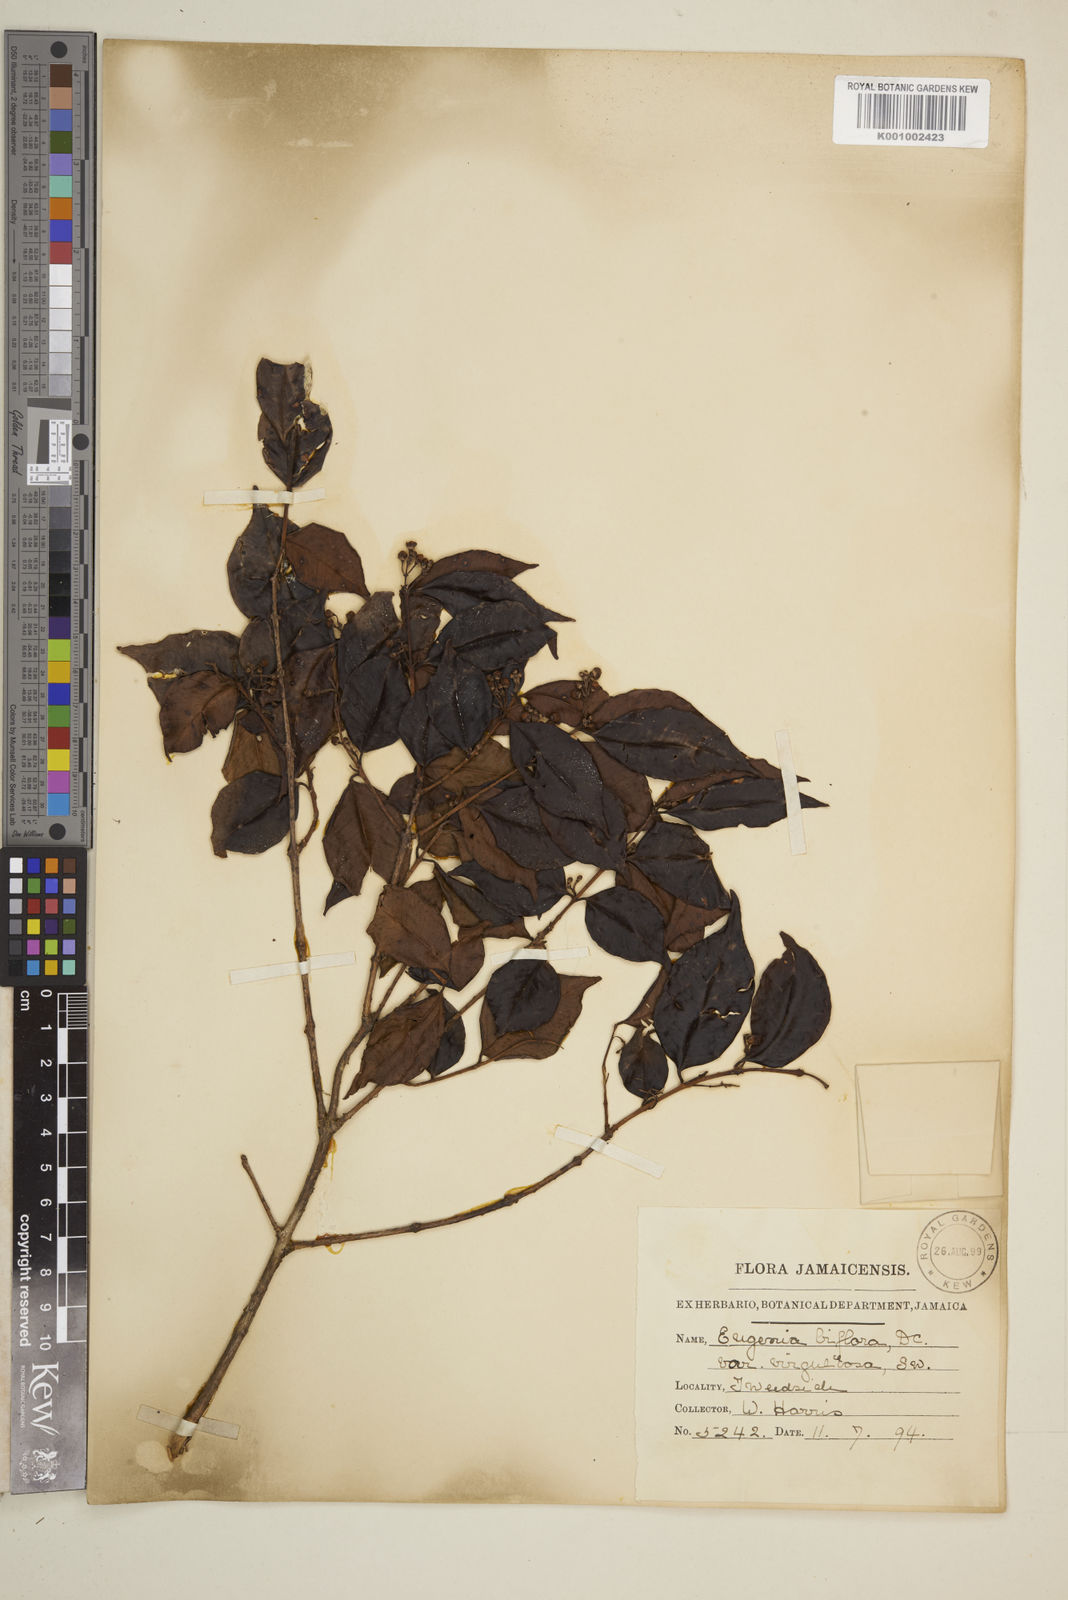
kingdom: Plantae
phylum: Tracheophyta
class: Magnoliopsida
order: Myrtales
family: Myrtaceae
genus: Eugenia
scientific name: Eugenia biflora
